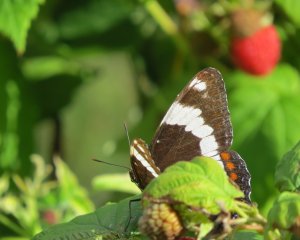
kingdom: Animalia
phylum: Arthropoda
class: Insecta
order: Lepidoptera
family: Nymphalidae
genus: Limenitis
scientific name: Limenitis arthemis
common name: Red-spotted Admiral
